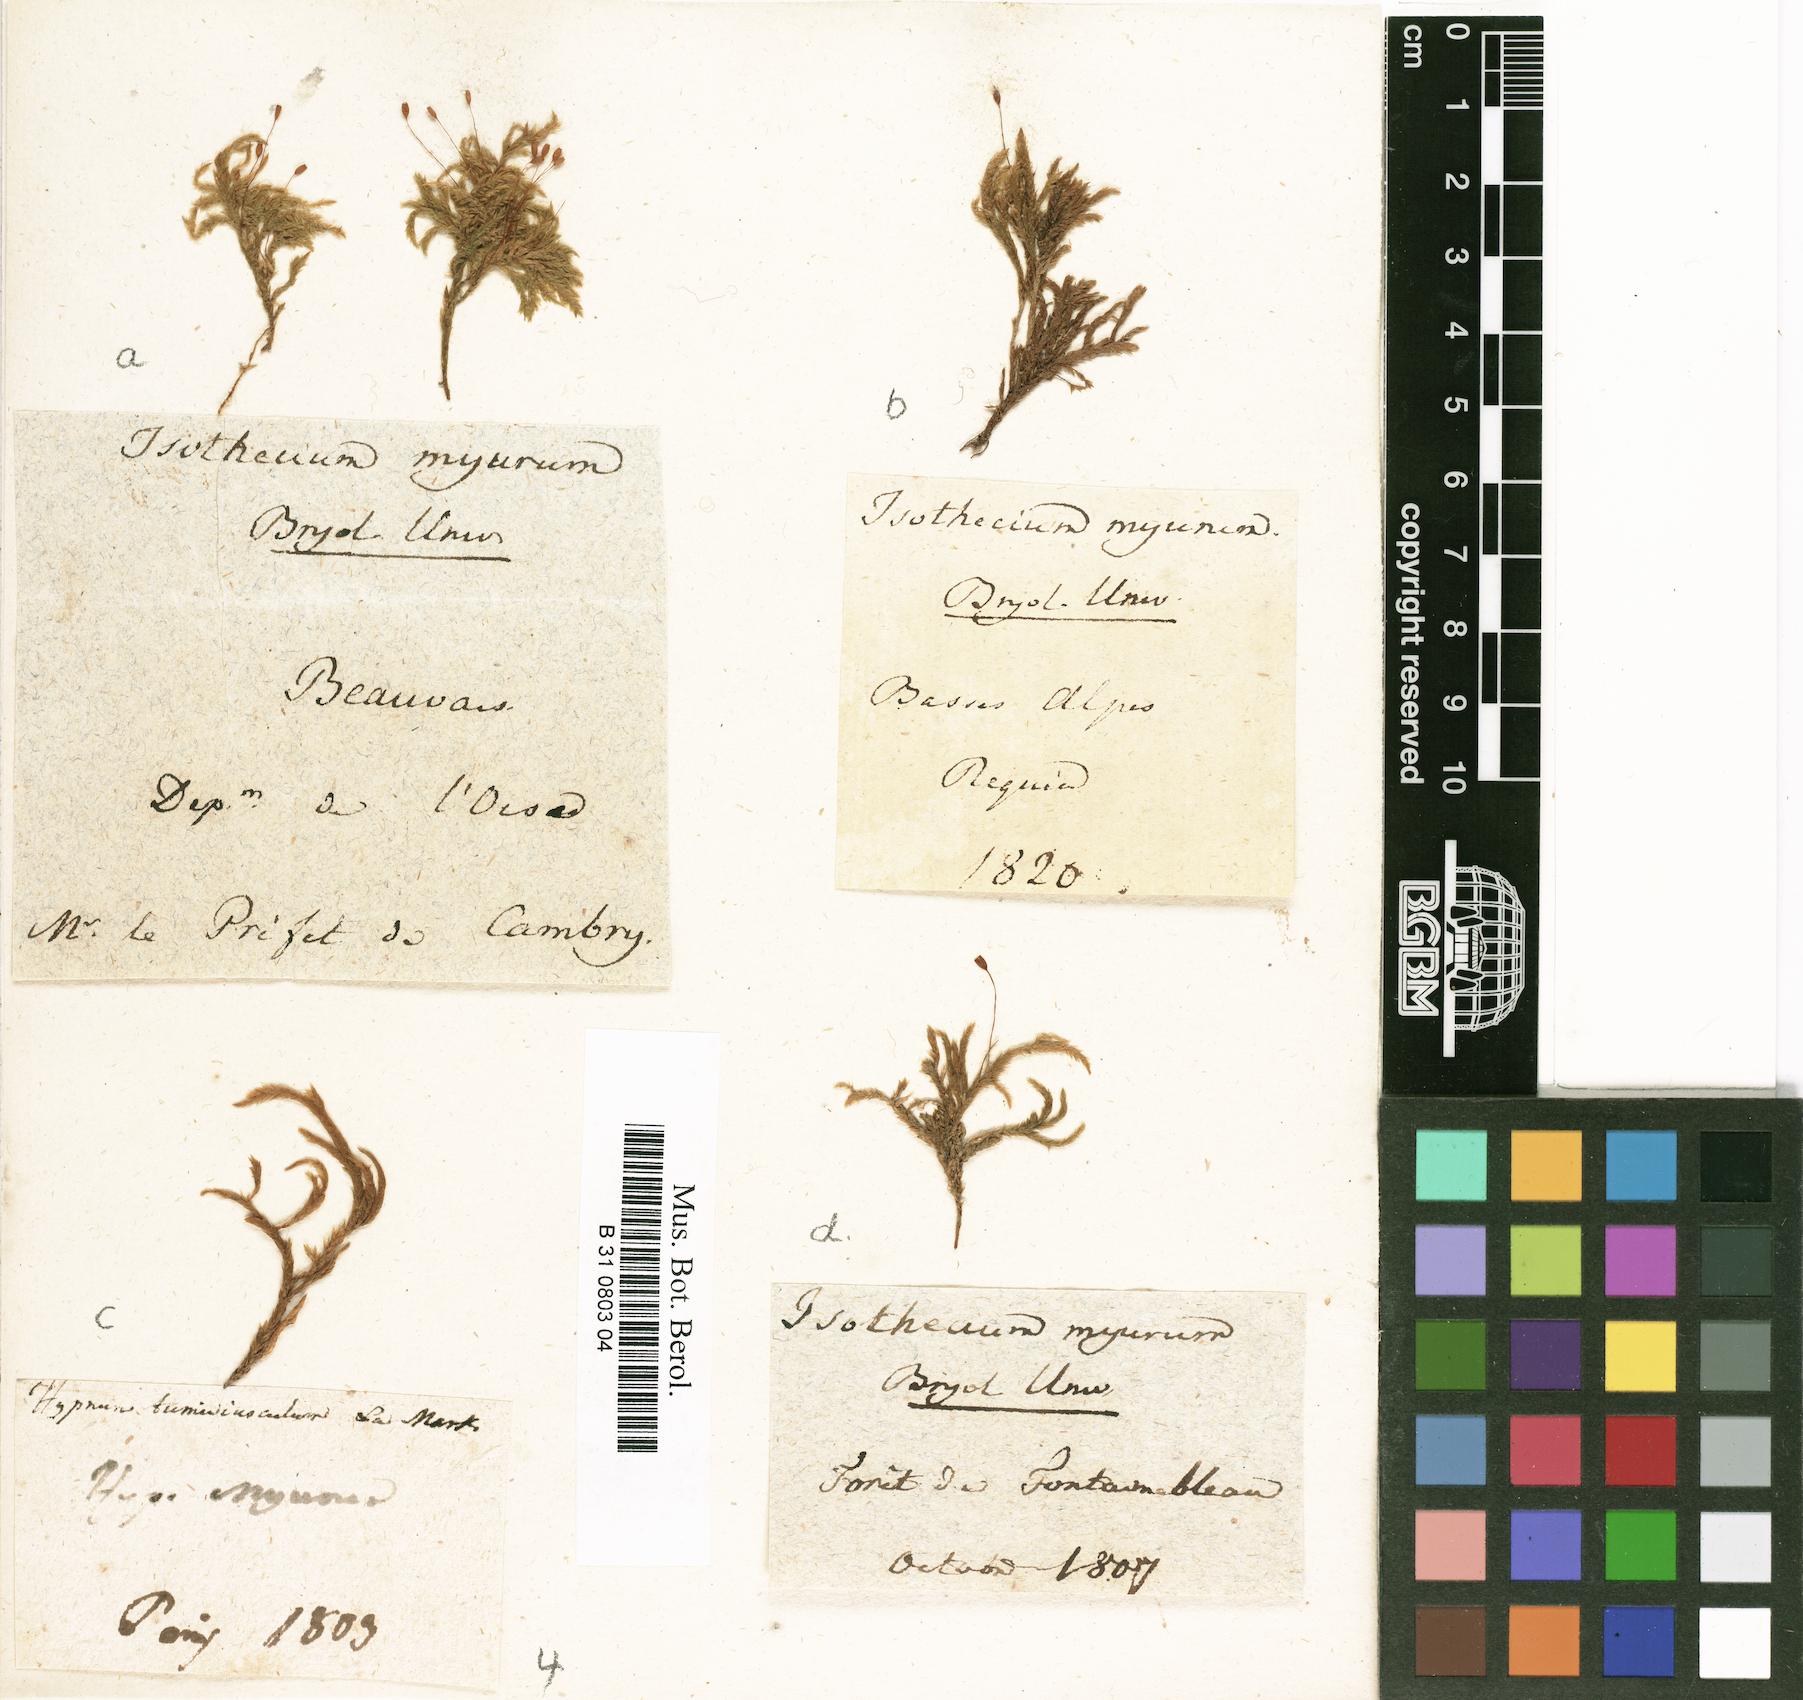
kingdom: Plantae
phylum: Bryophyta
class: Bryopsida
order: Hypnales
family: Lembophyllaceae
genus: Isothecium
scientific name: Isothecium alopecuroides
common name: Larger mouse-tail moss
